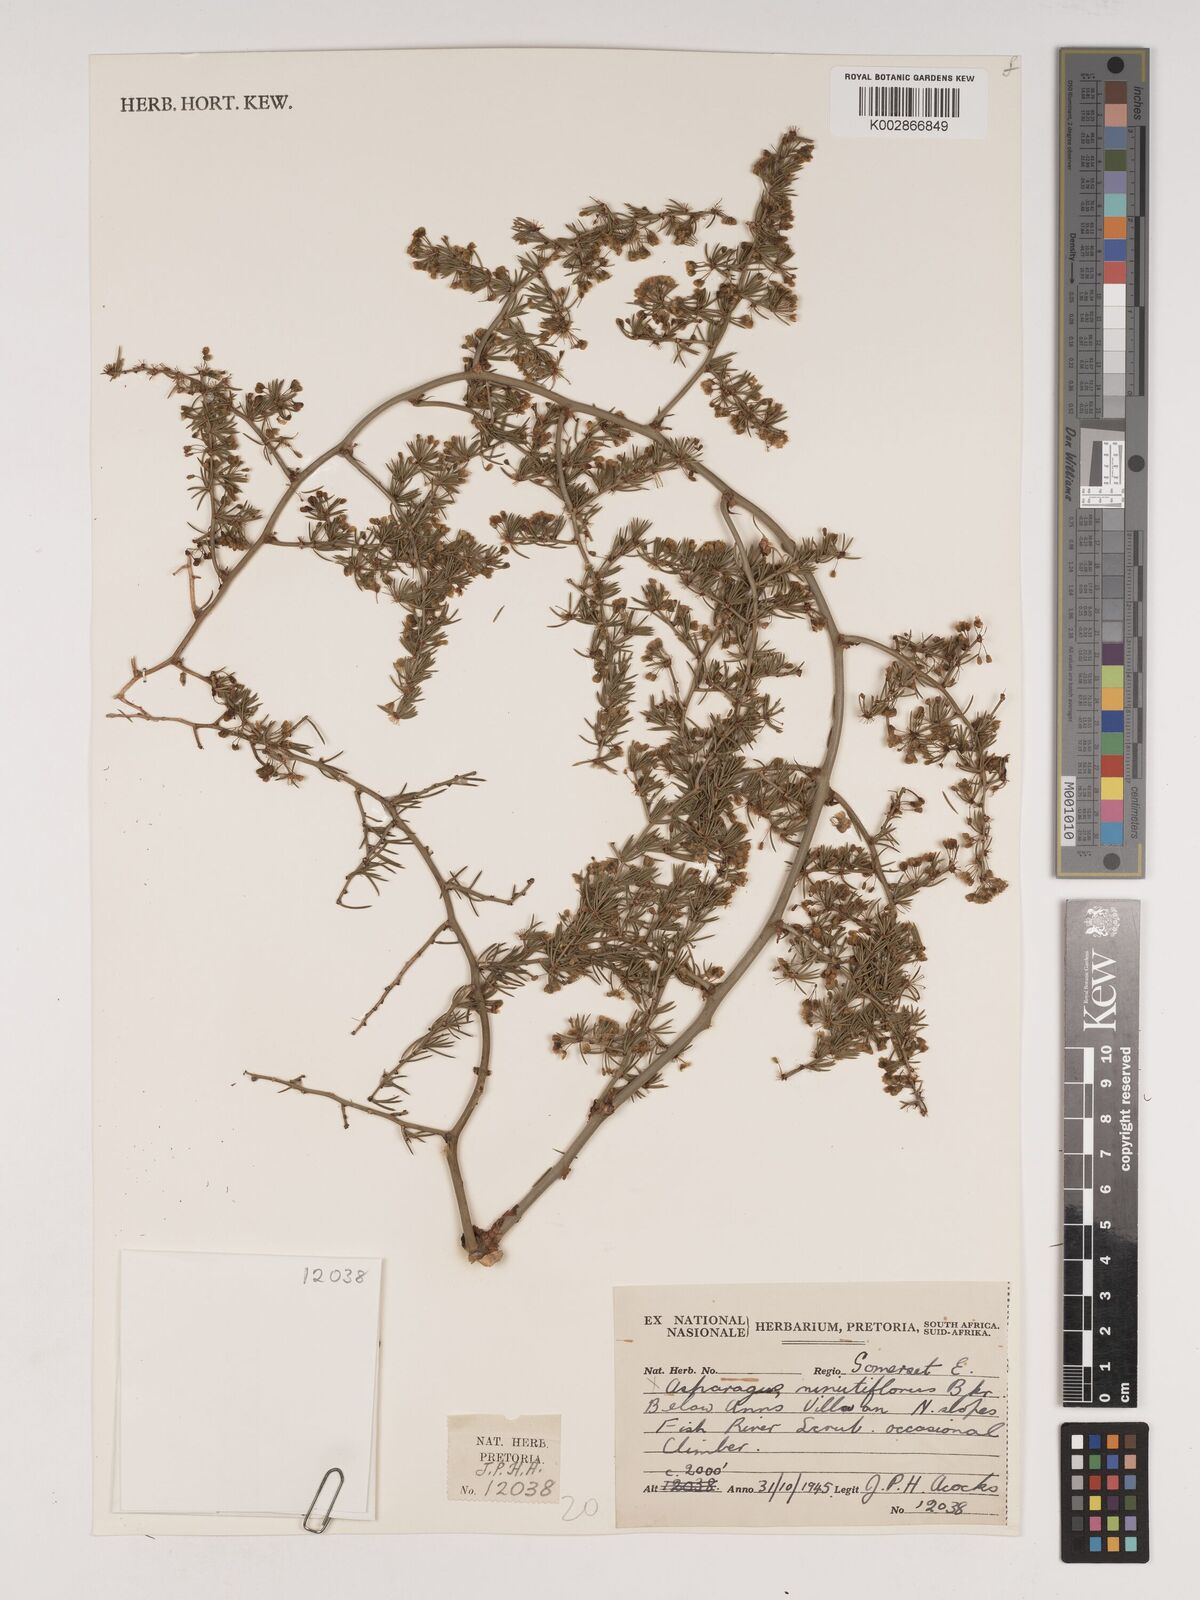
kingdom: Plantae
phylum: Tracheophyta
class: Liliopsida
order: Asparagales
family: Asparagaceae
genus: Asparagus
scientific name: Asparagus minutiflorus
